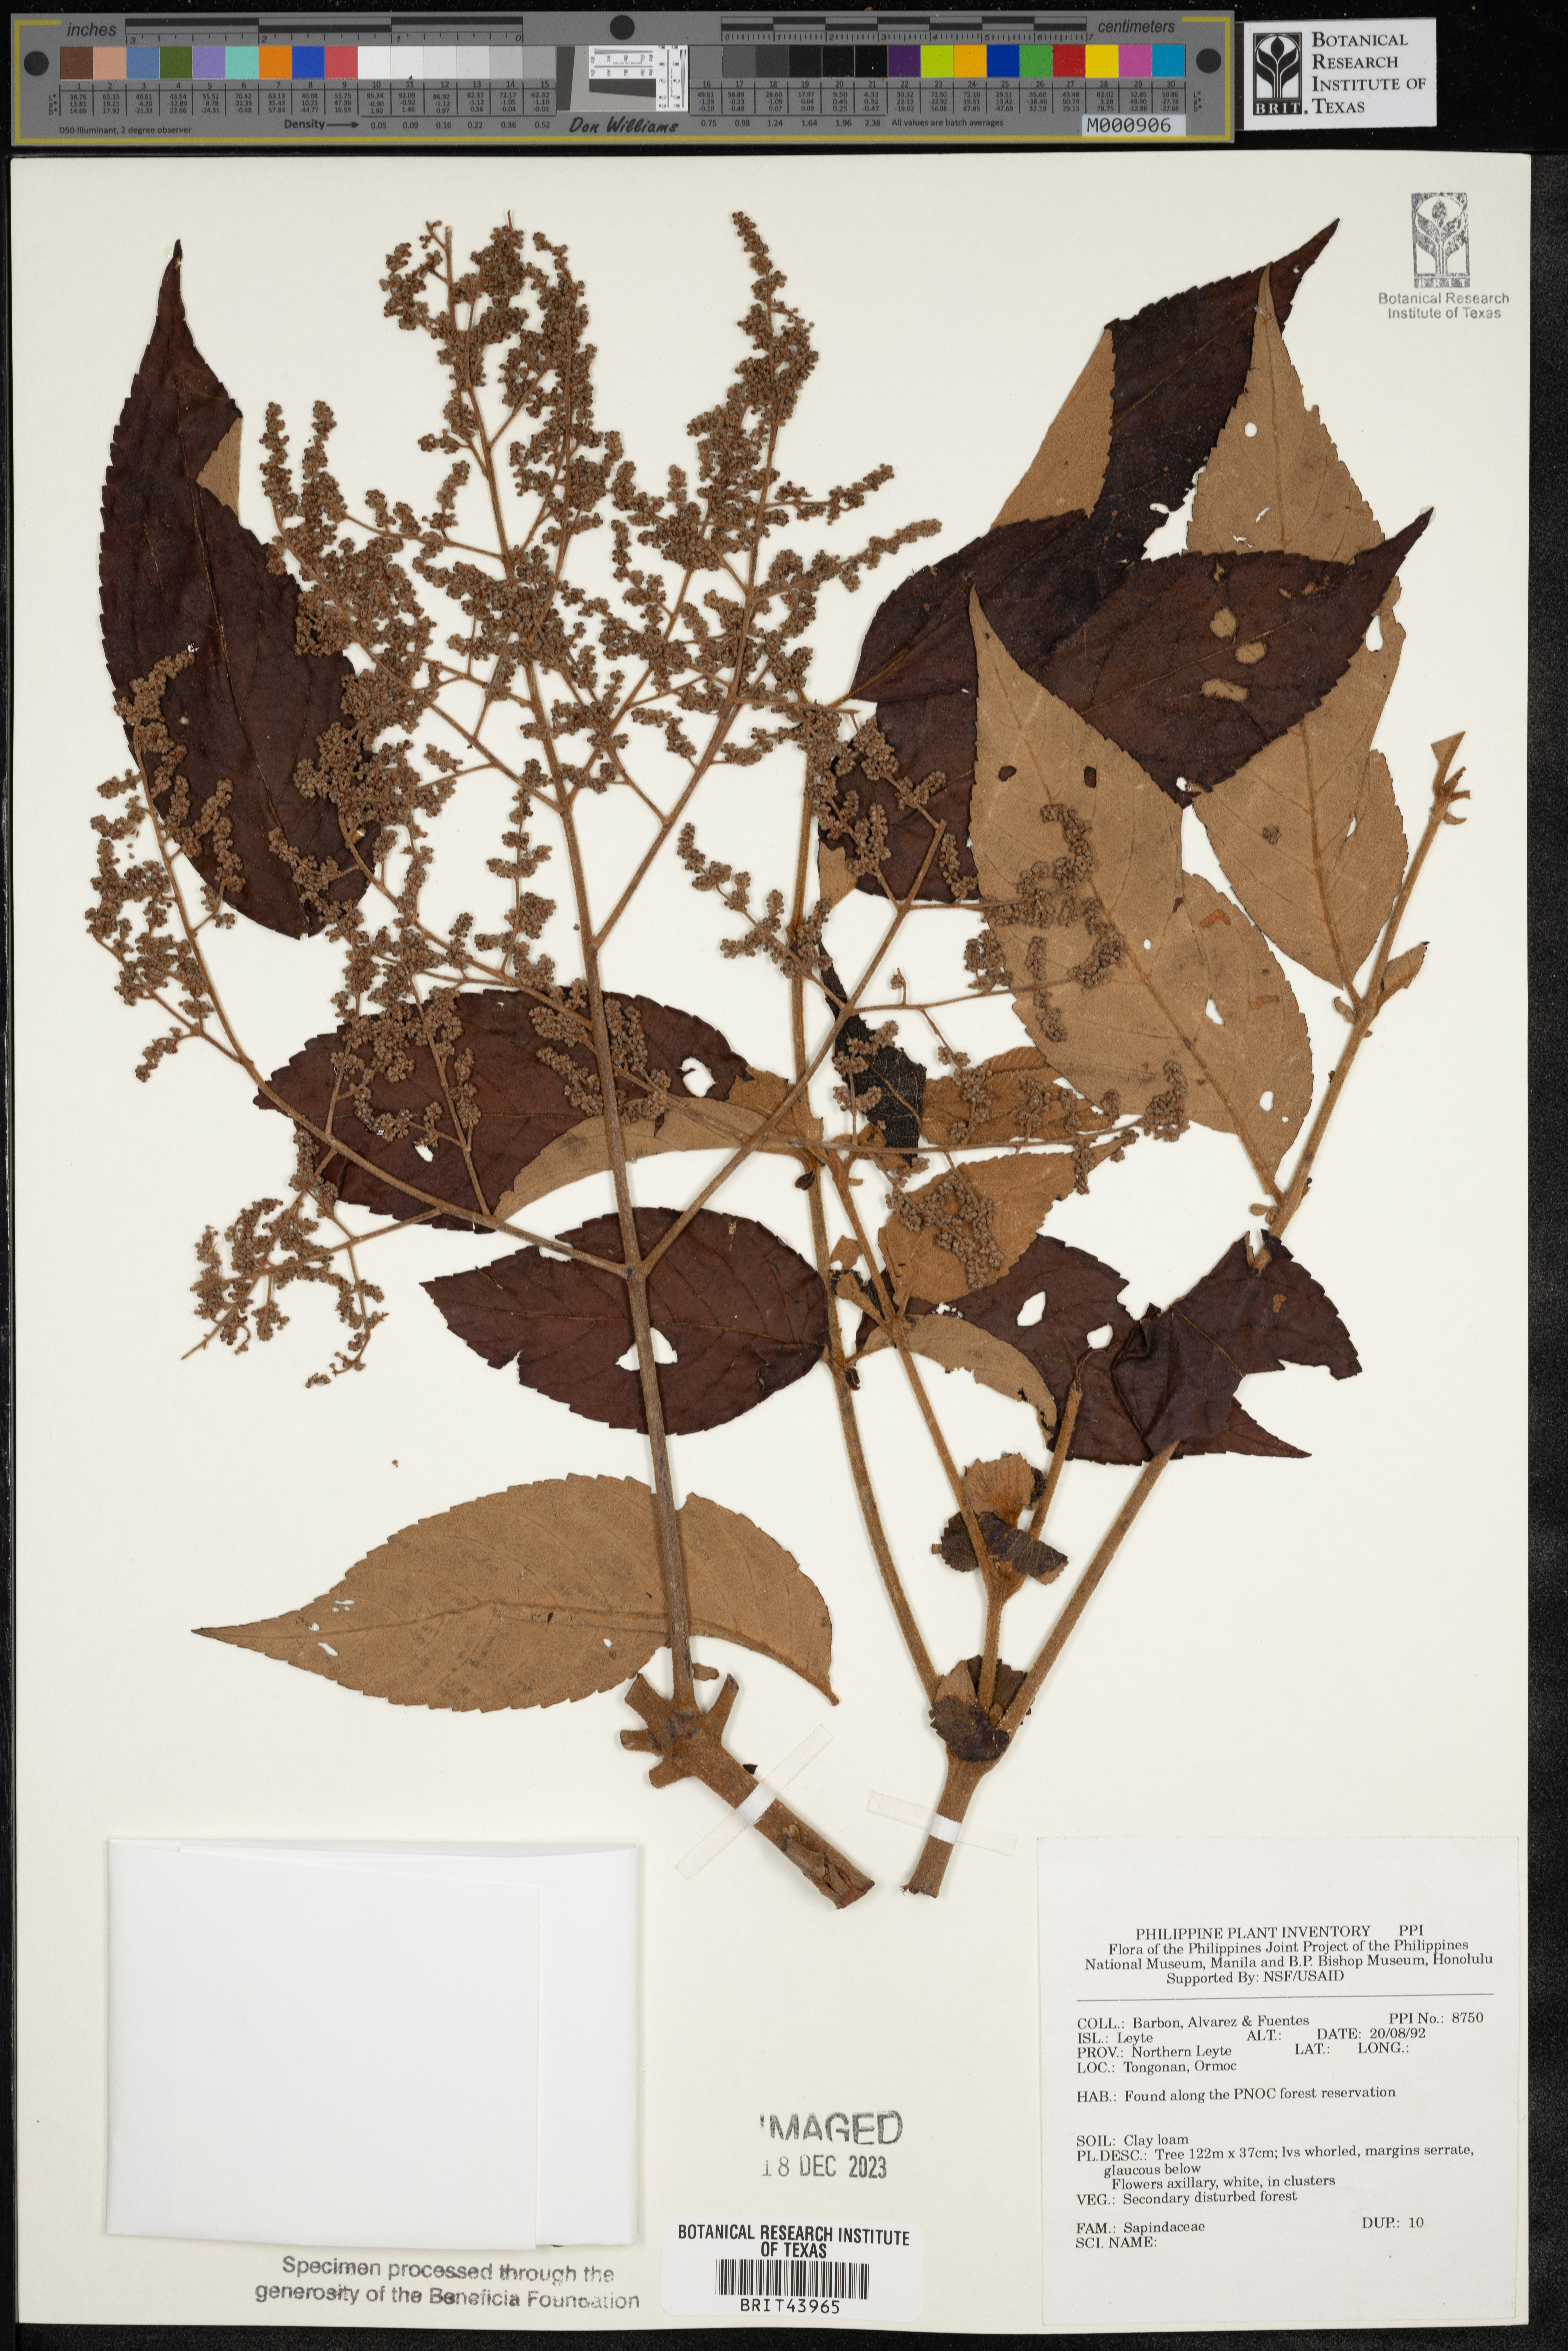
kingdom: Plantae
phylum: Tracheophyta
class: Magnoliopsida
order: Sapindales
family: Sapindaceae
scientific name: Sapindaceae
